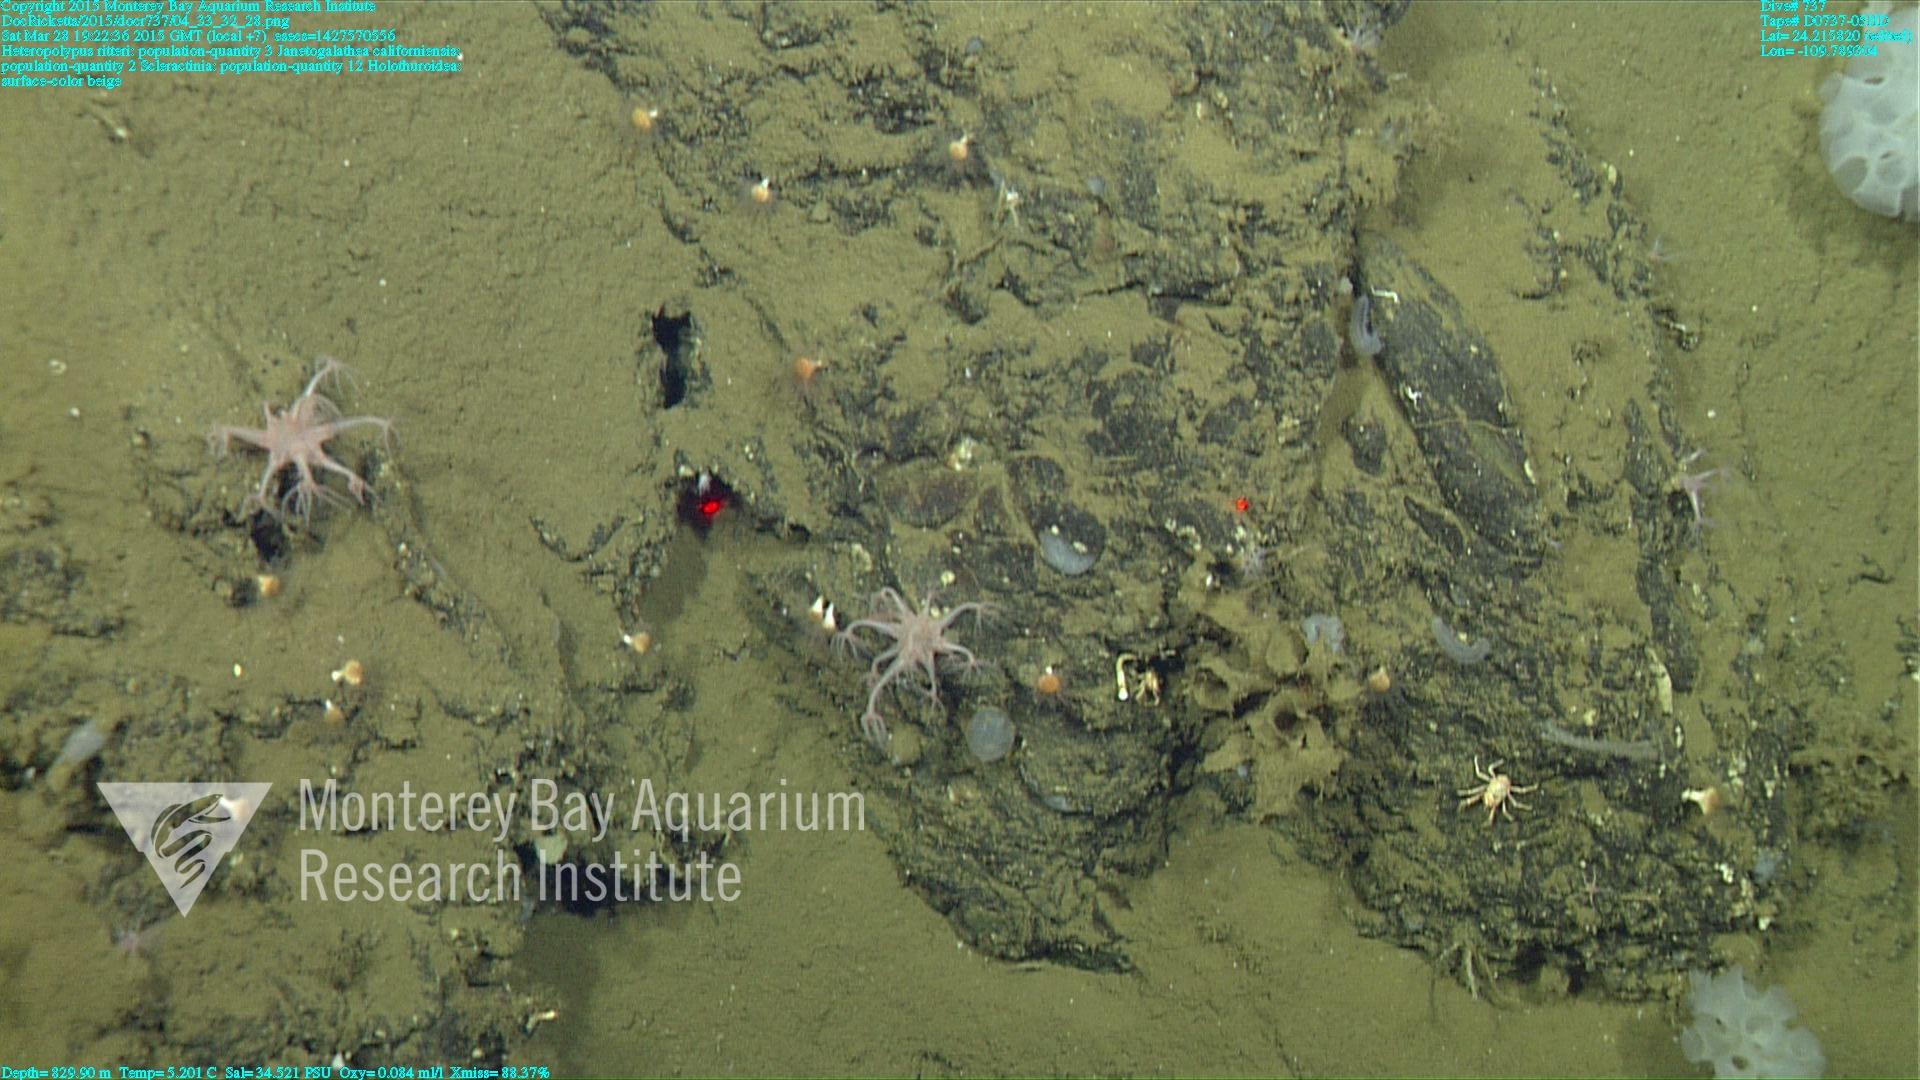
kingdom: Animalia
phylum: Cnidaria
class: Anthozoa
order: Scleractinia
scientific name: Scleractinia
